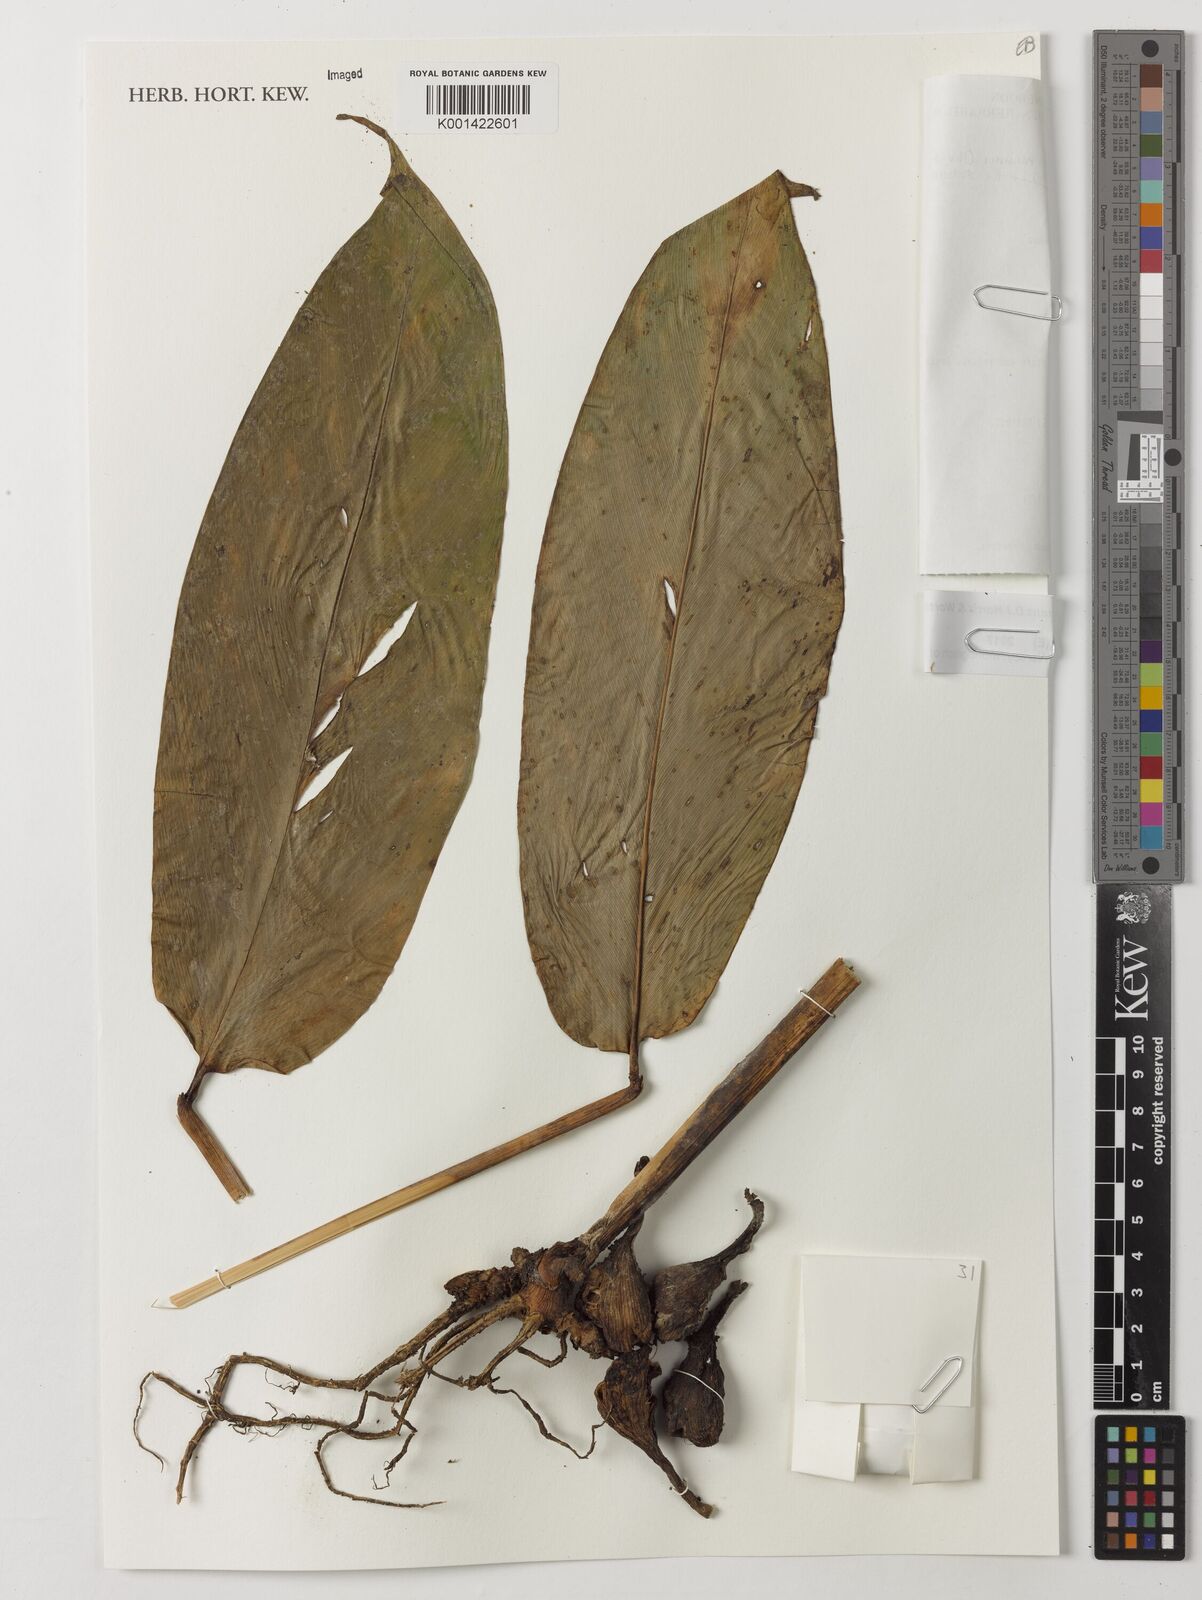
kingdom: Plantae
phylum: Tracheophyta
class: Liliopsida
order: Zingiberales
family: Zingiberaceae
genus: Aframomum
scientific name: Aframomum fragrans
